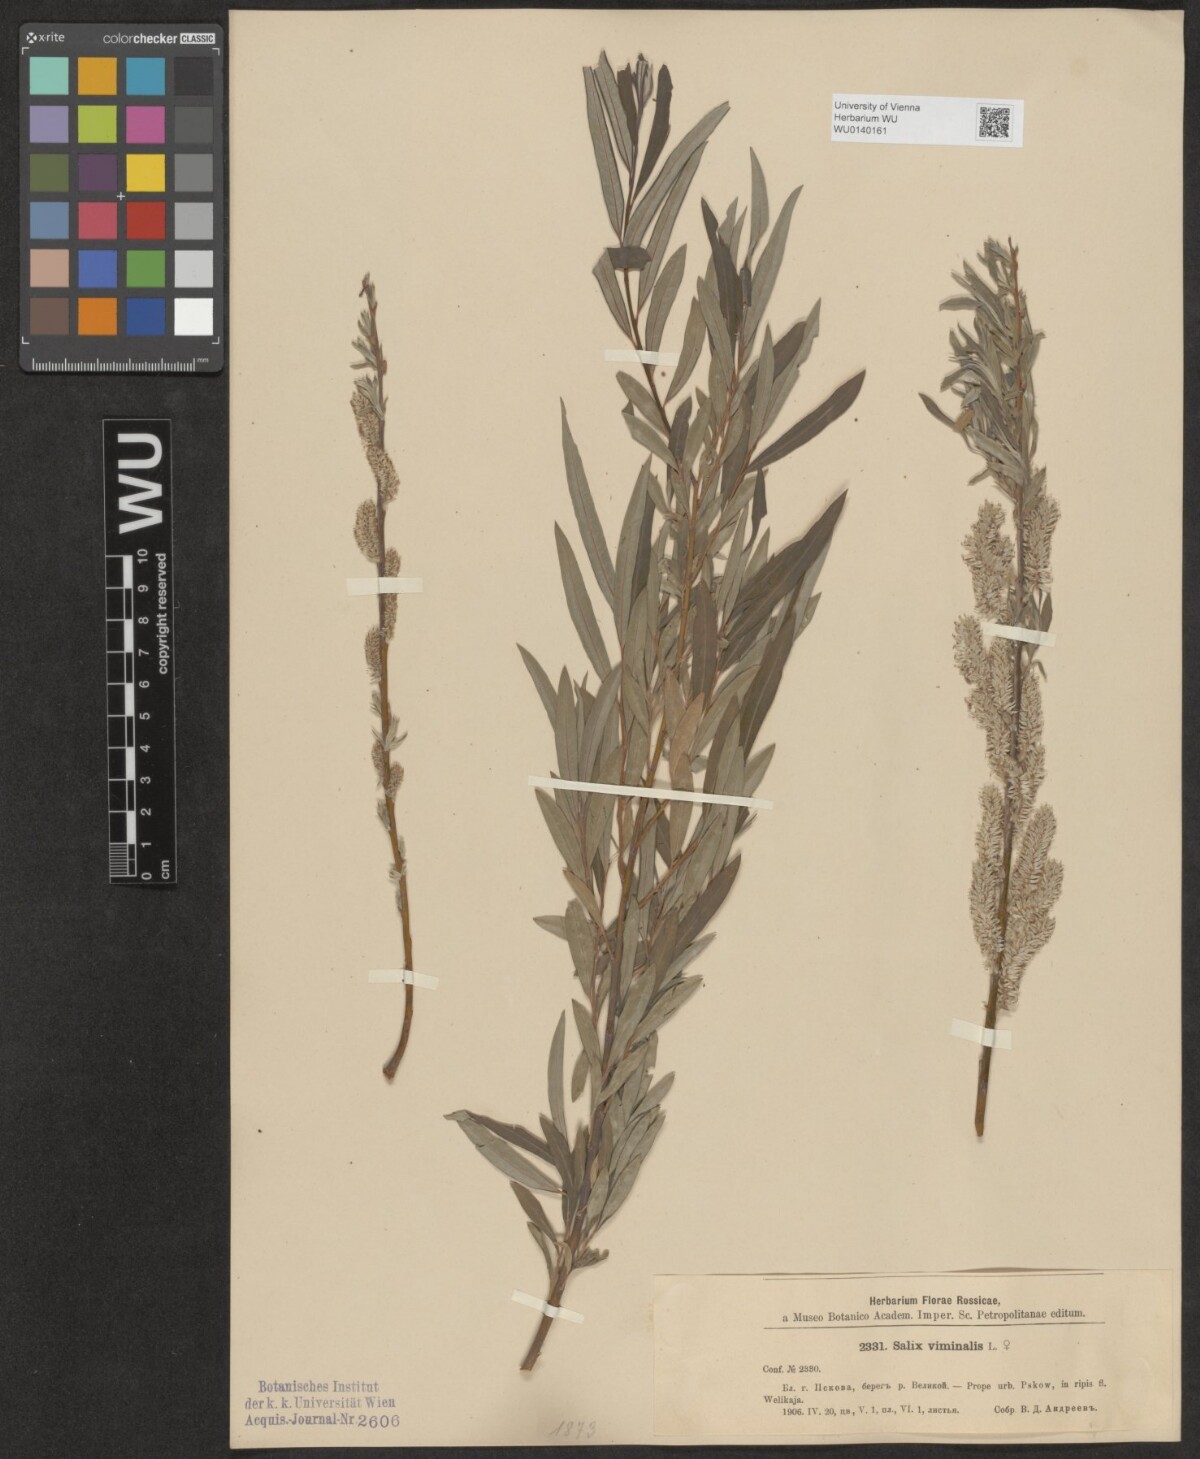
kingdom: Plantae
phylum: Tracheophyta
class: Magnoliopsida
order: Malpighiales
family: Salicaceae
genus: Salix
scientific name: Salix viminalis
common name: Osier
